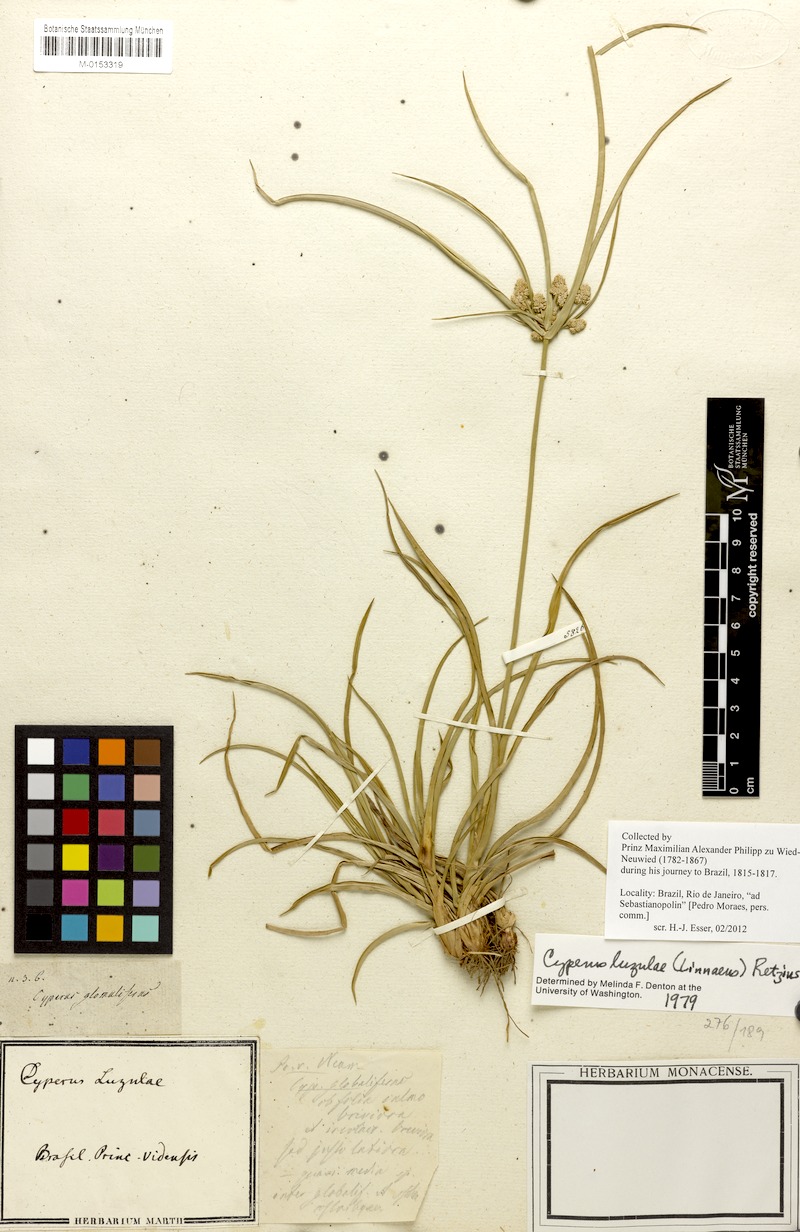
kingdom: Plantae
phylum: Tracheophyta
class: Liliopsida
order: Poales
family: Cyperaceae
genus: Cyperus
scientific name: Cyperus luzulae
